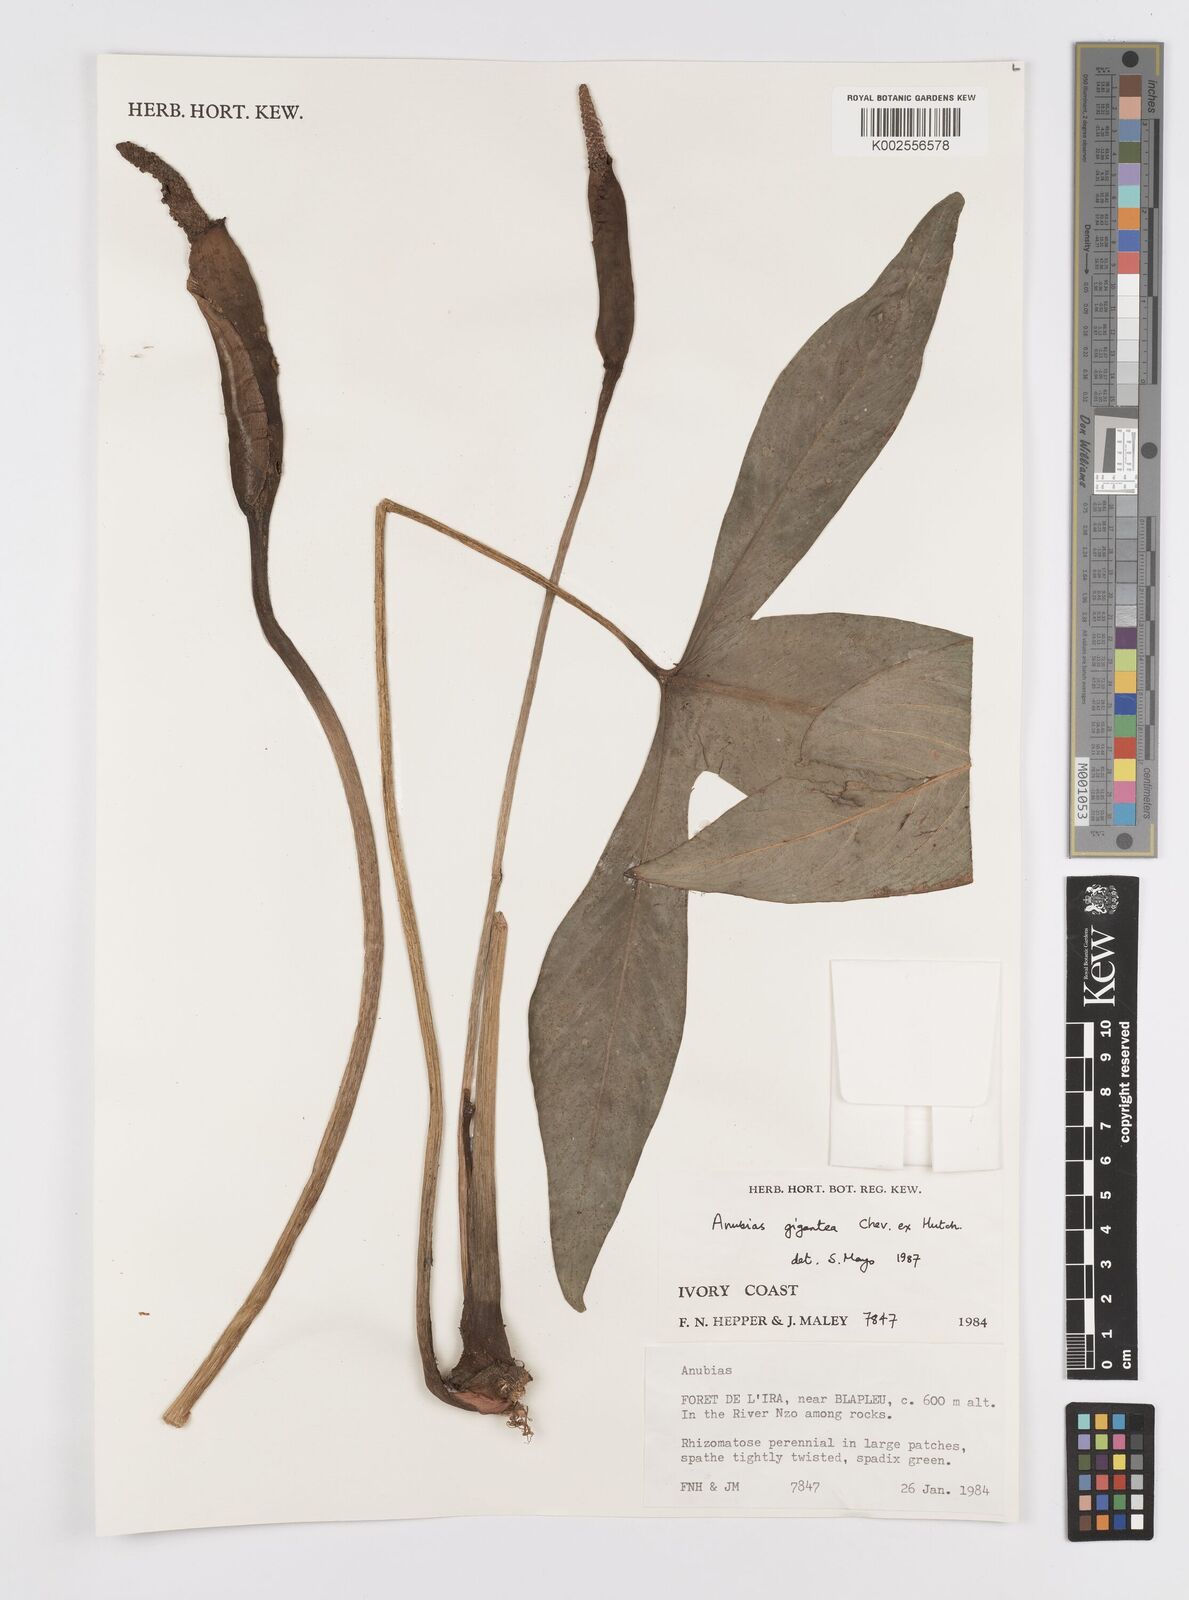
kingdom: Plantae
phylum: Tracheophyta
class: Liliopsida
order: Alismatales
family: Araceae
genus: Anubias
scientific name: Anubias gigantea
